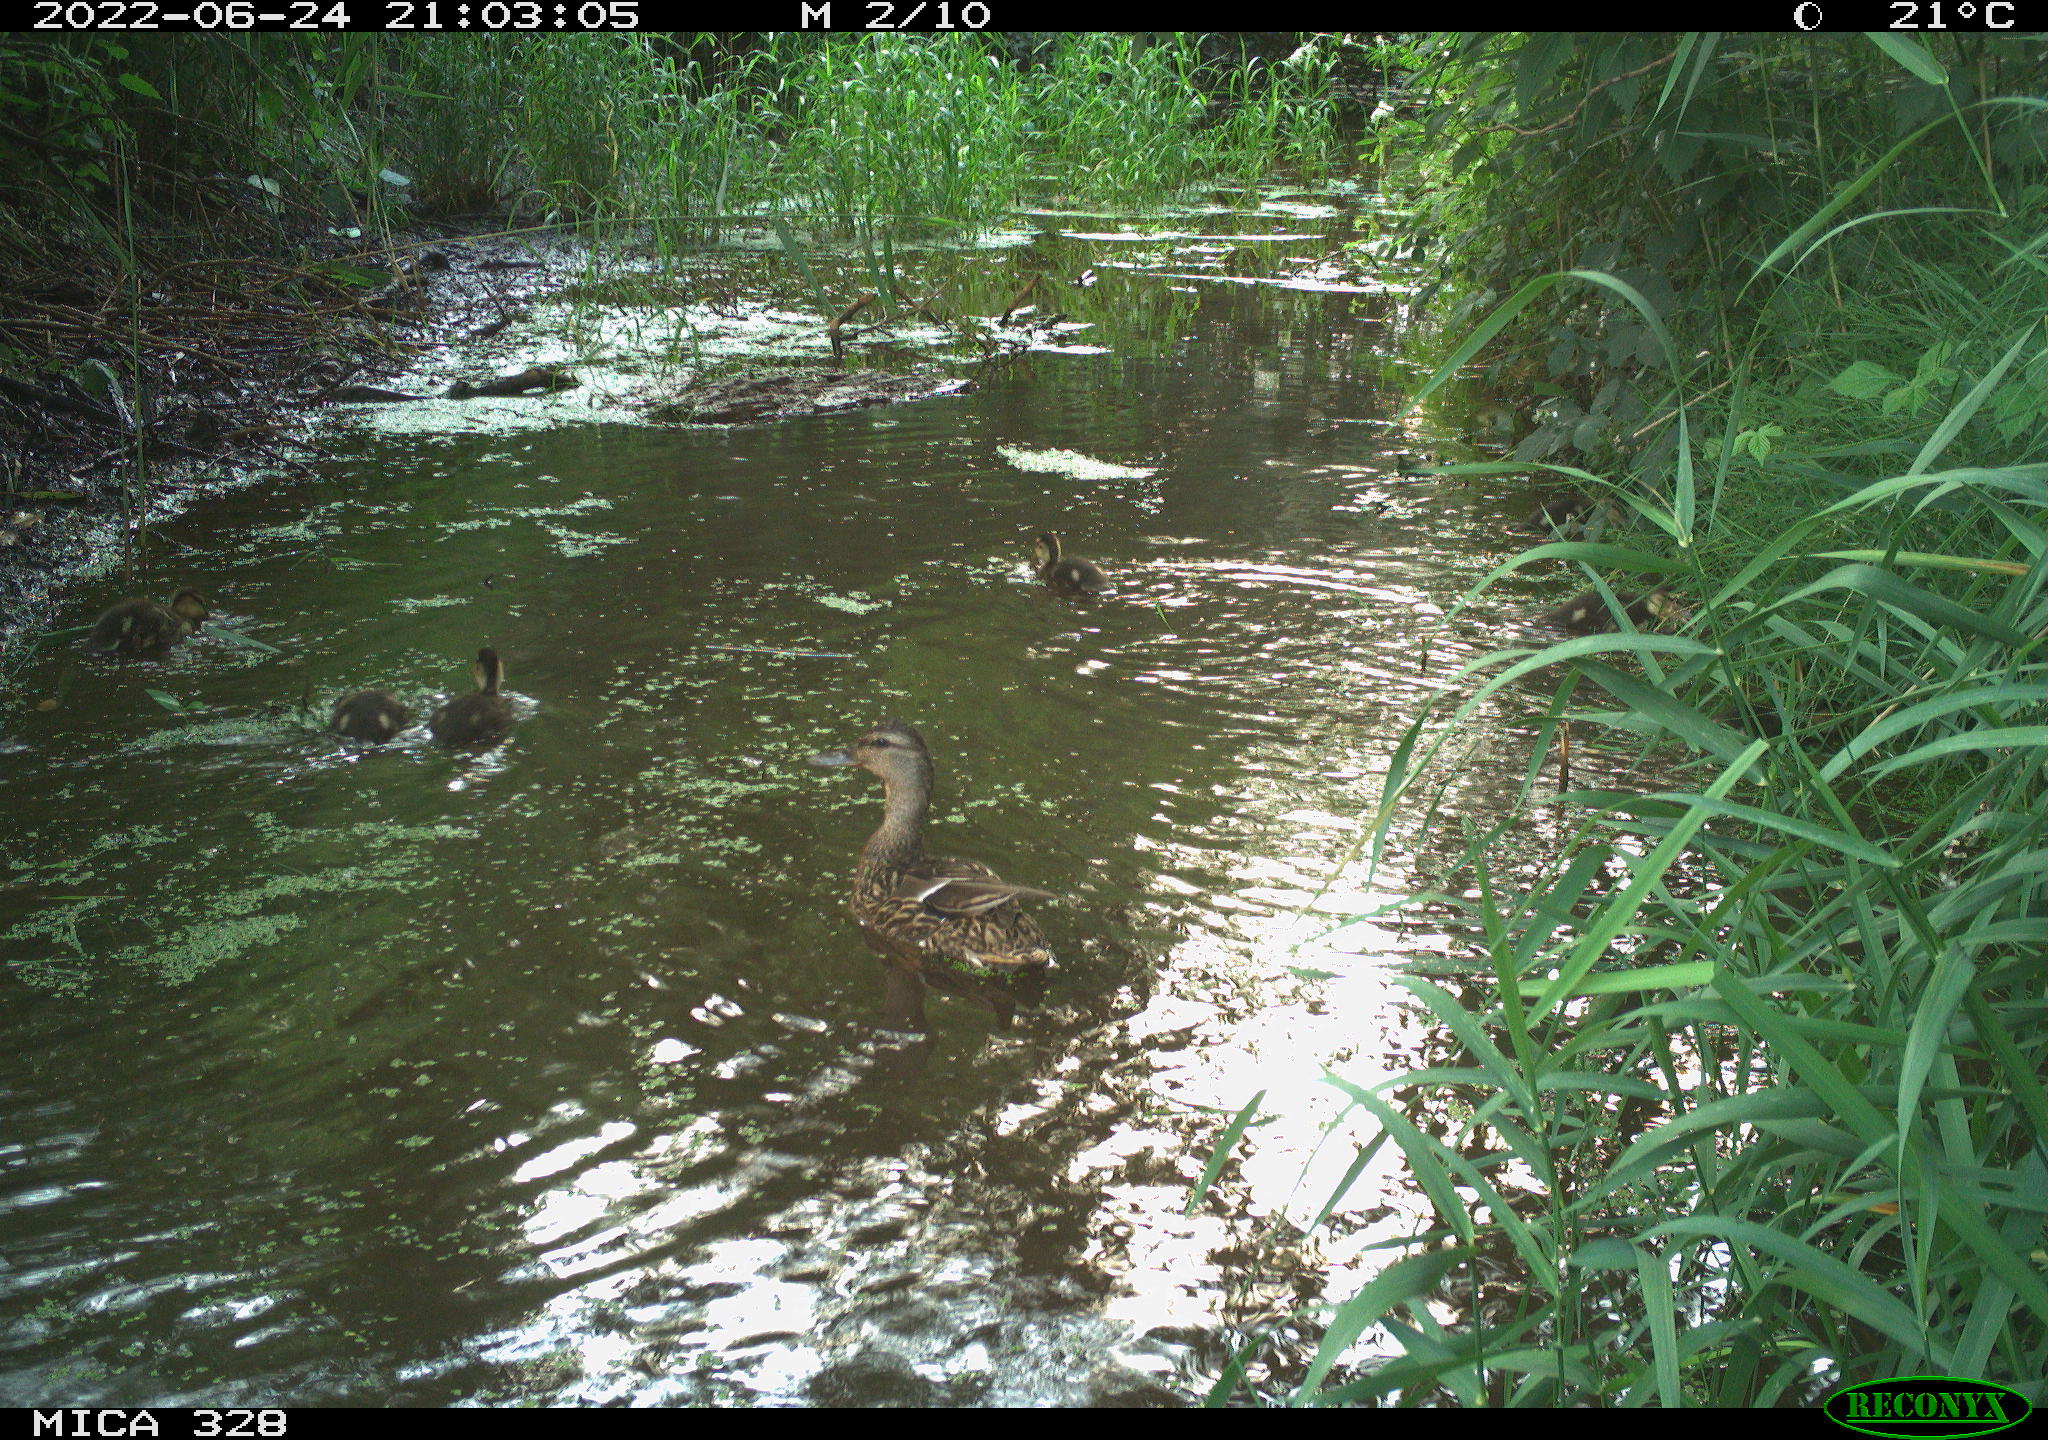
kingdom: Animalia
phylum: Chordata
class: Aves
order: Anseriformes
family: Anatidae
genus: Anas
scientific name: Anas
